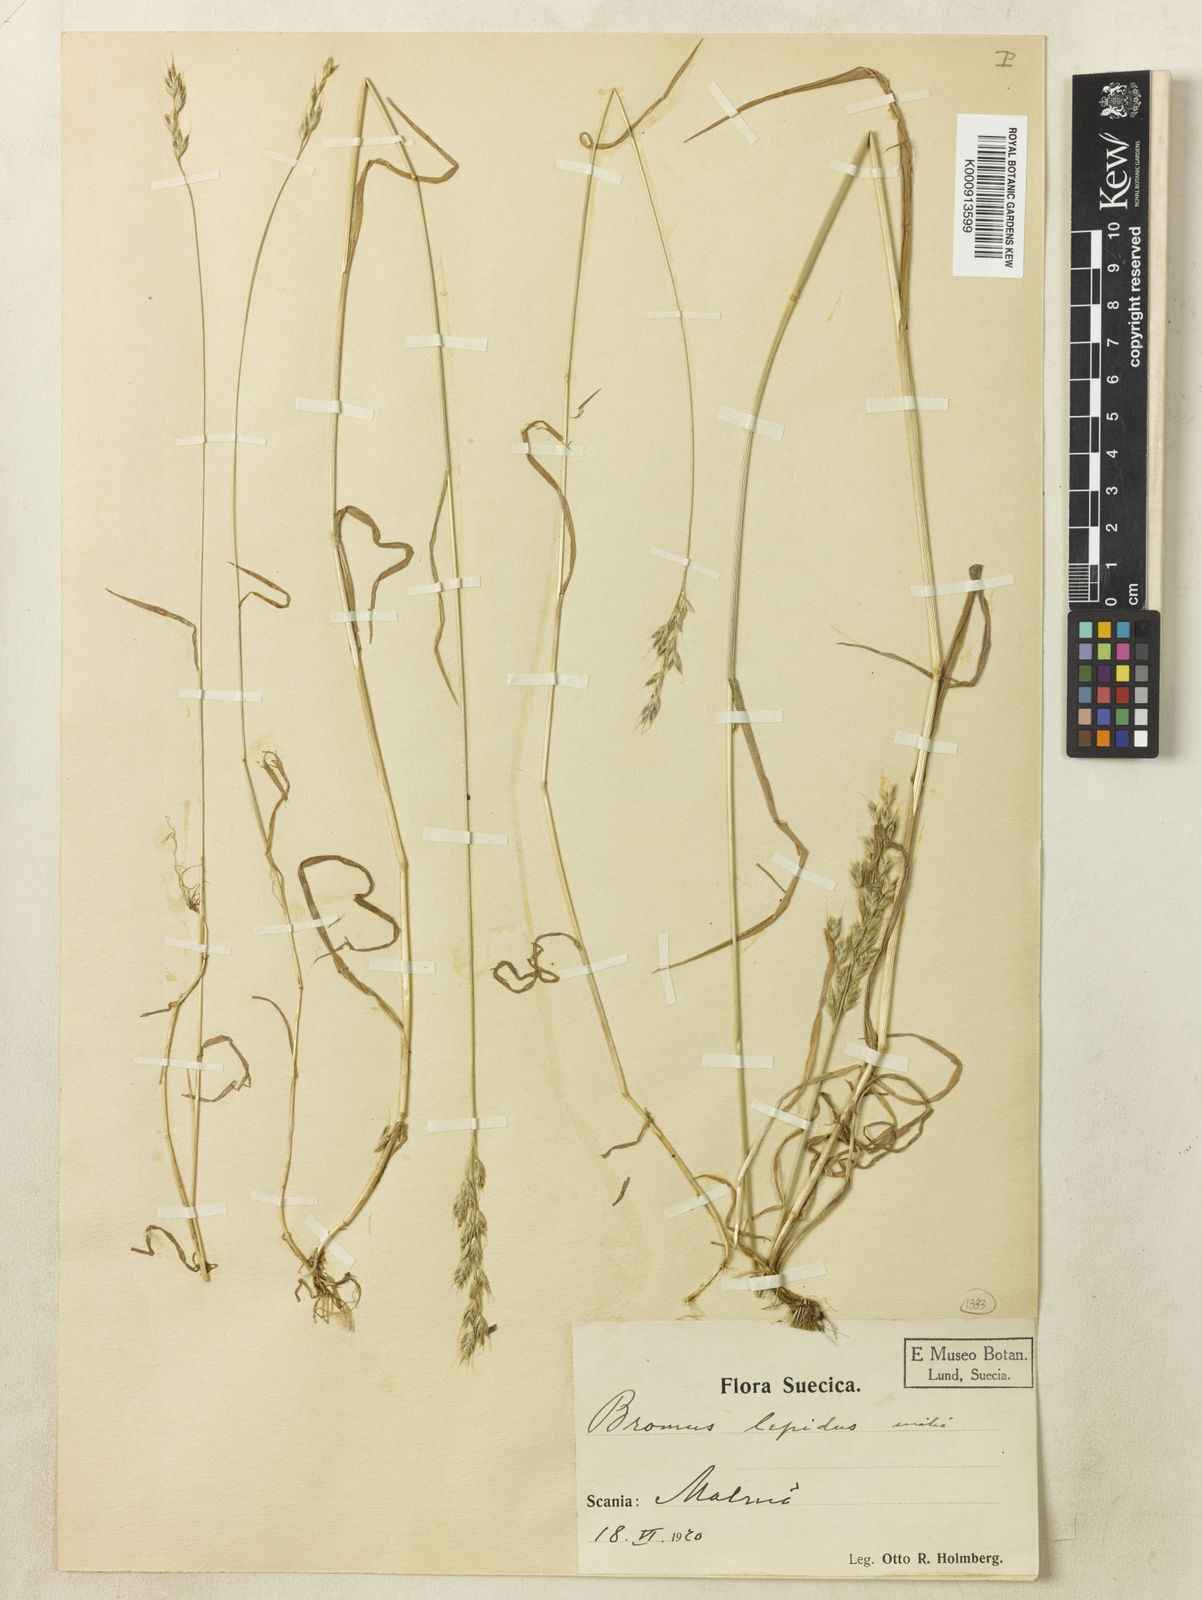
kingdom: Plantae
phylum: Tracheophyta
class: Liliopsida
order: Poales
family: Poaceae
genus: Bromus
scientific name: Bromus lepidus
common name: Slender soft-brome
